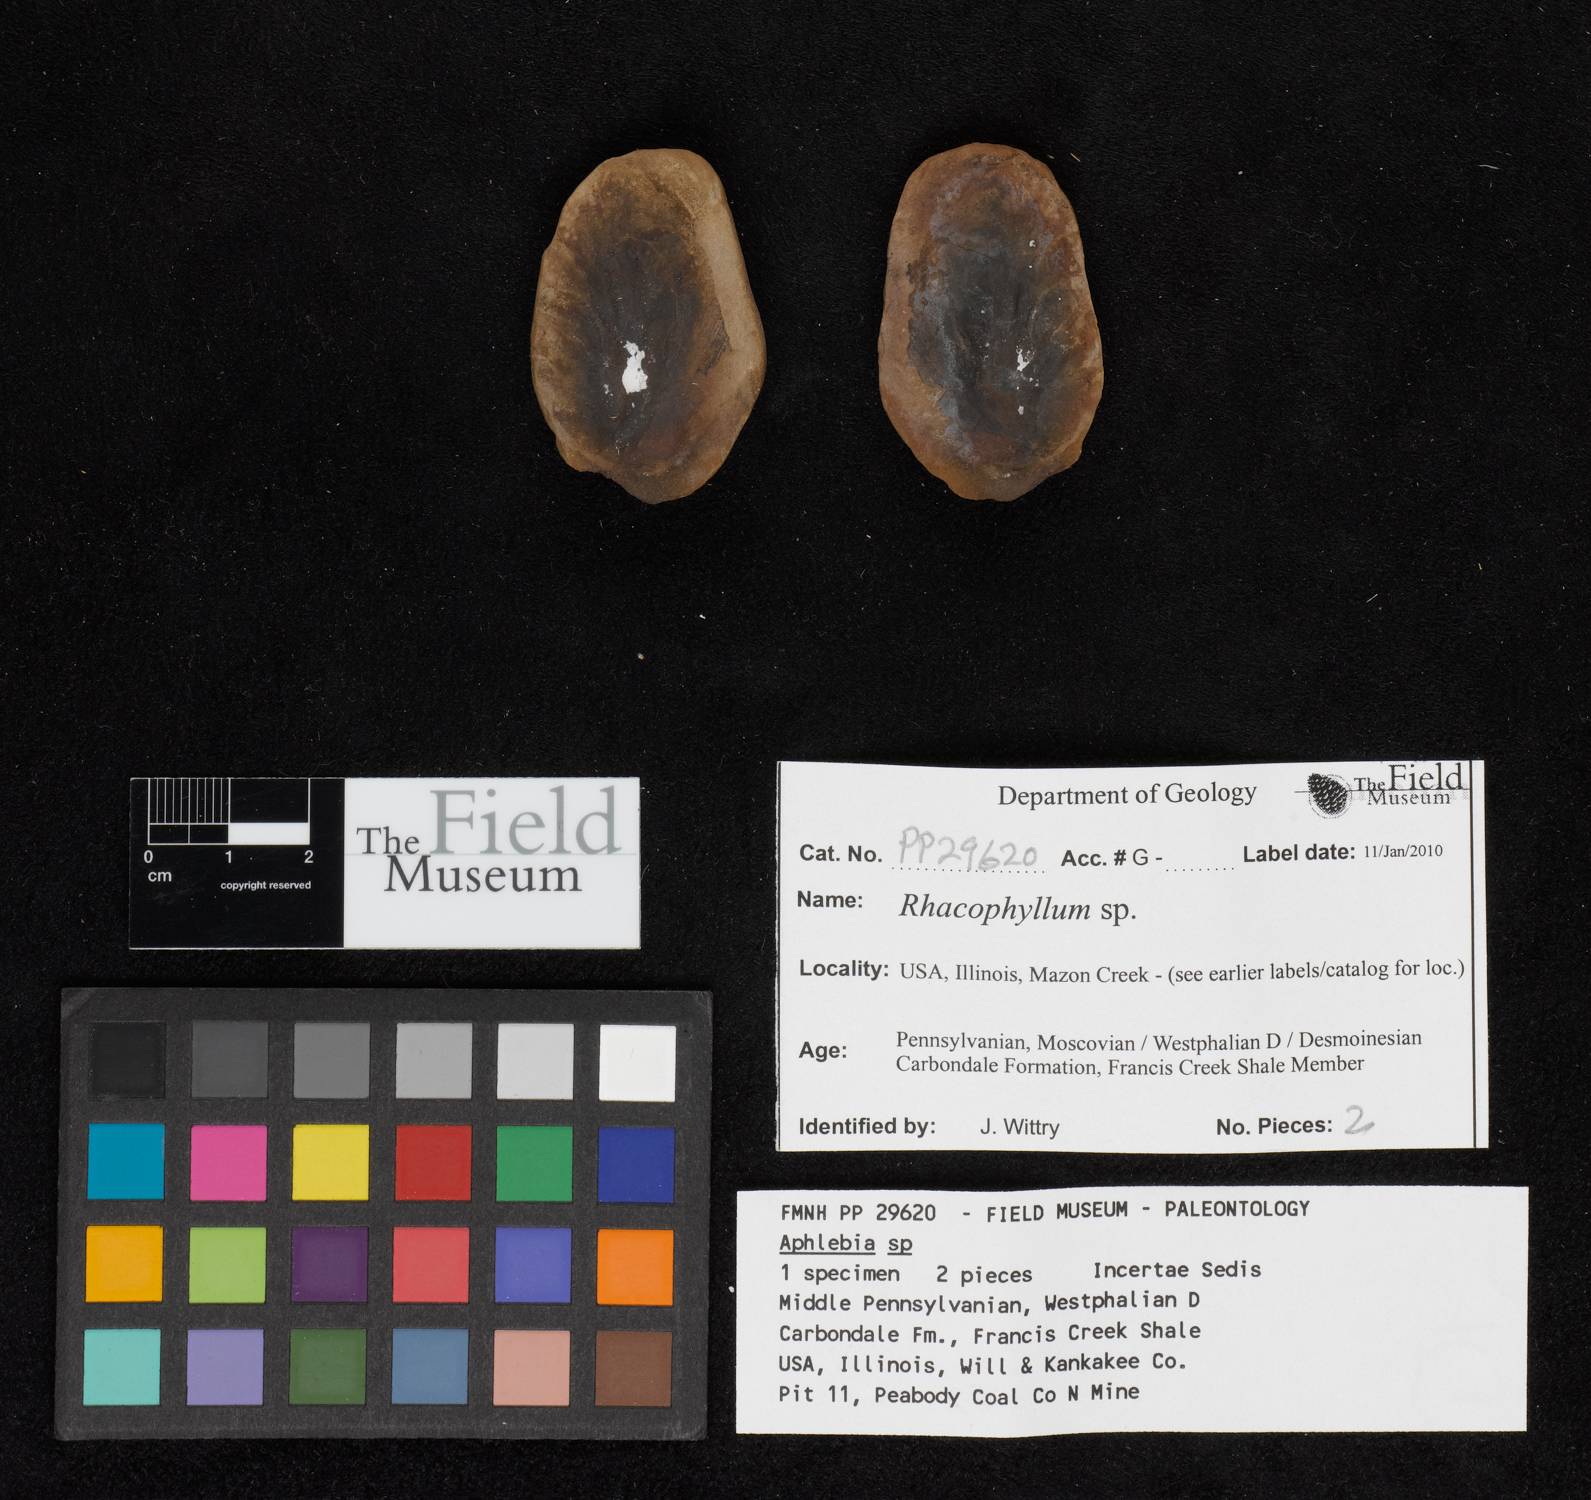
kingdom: Plantae
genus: Rhacophyllum
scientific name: Rhacophyllum
